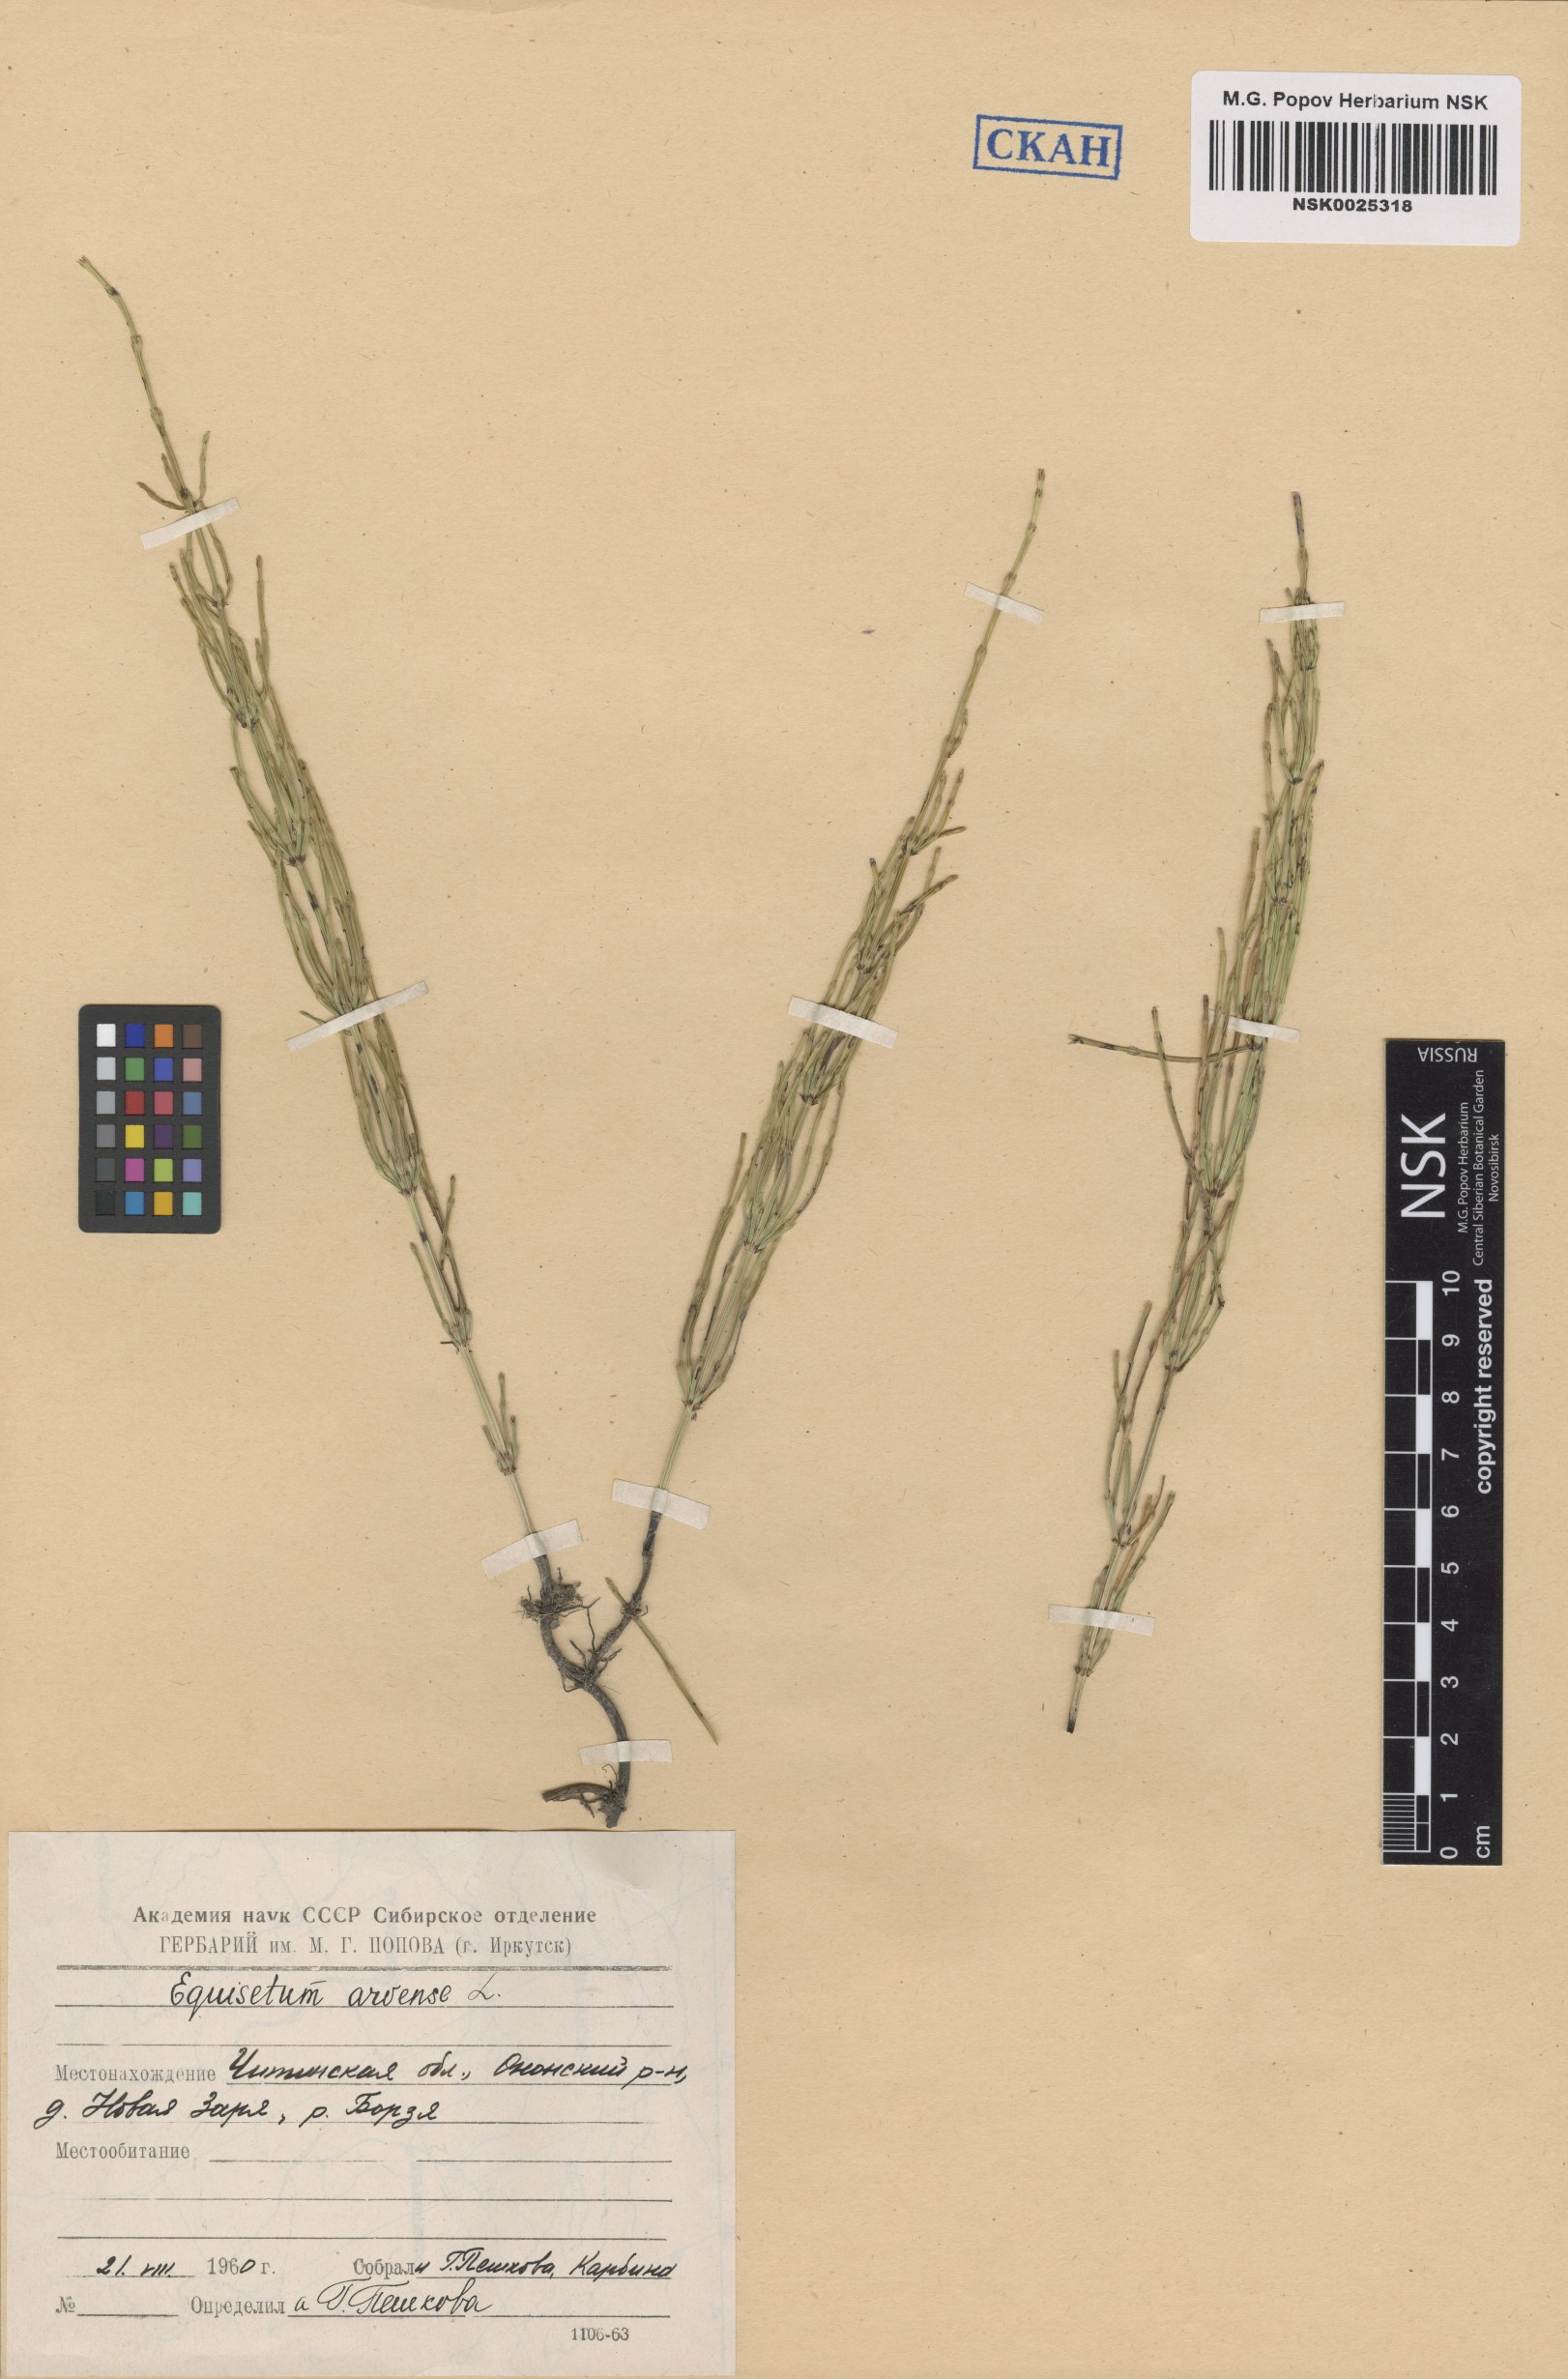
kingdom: Plantae
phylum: Tracheophyta
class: Polypodiopsida
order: Equisetales
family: Equisetaceae
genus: Equisetum
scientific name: Equisetum arvense
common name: Field horsetail
